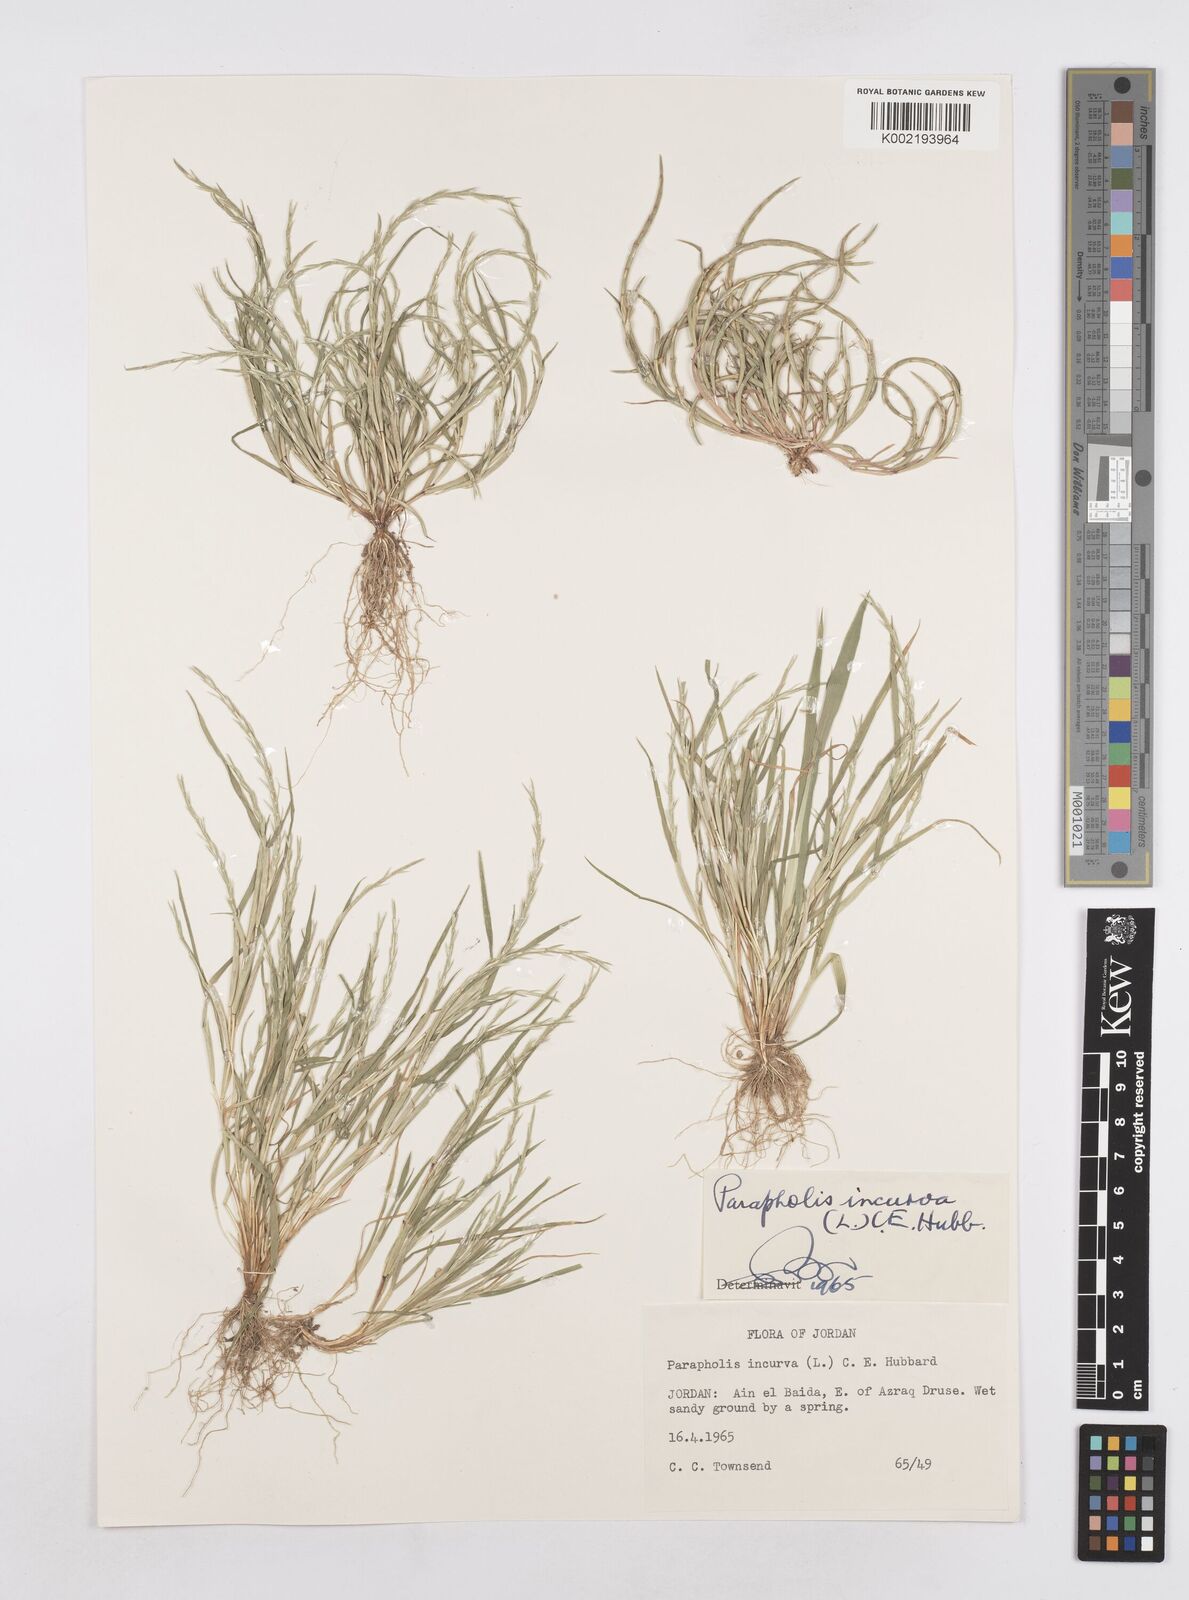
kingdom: Plantae
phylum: Tracheophyta
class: Liliopsida
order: Poales
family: Poaceae
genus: Parapholis
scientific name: Parapholis incurva
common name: Curved sicklegrass
